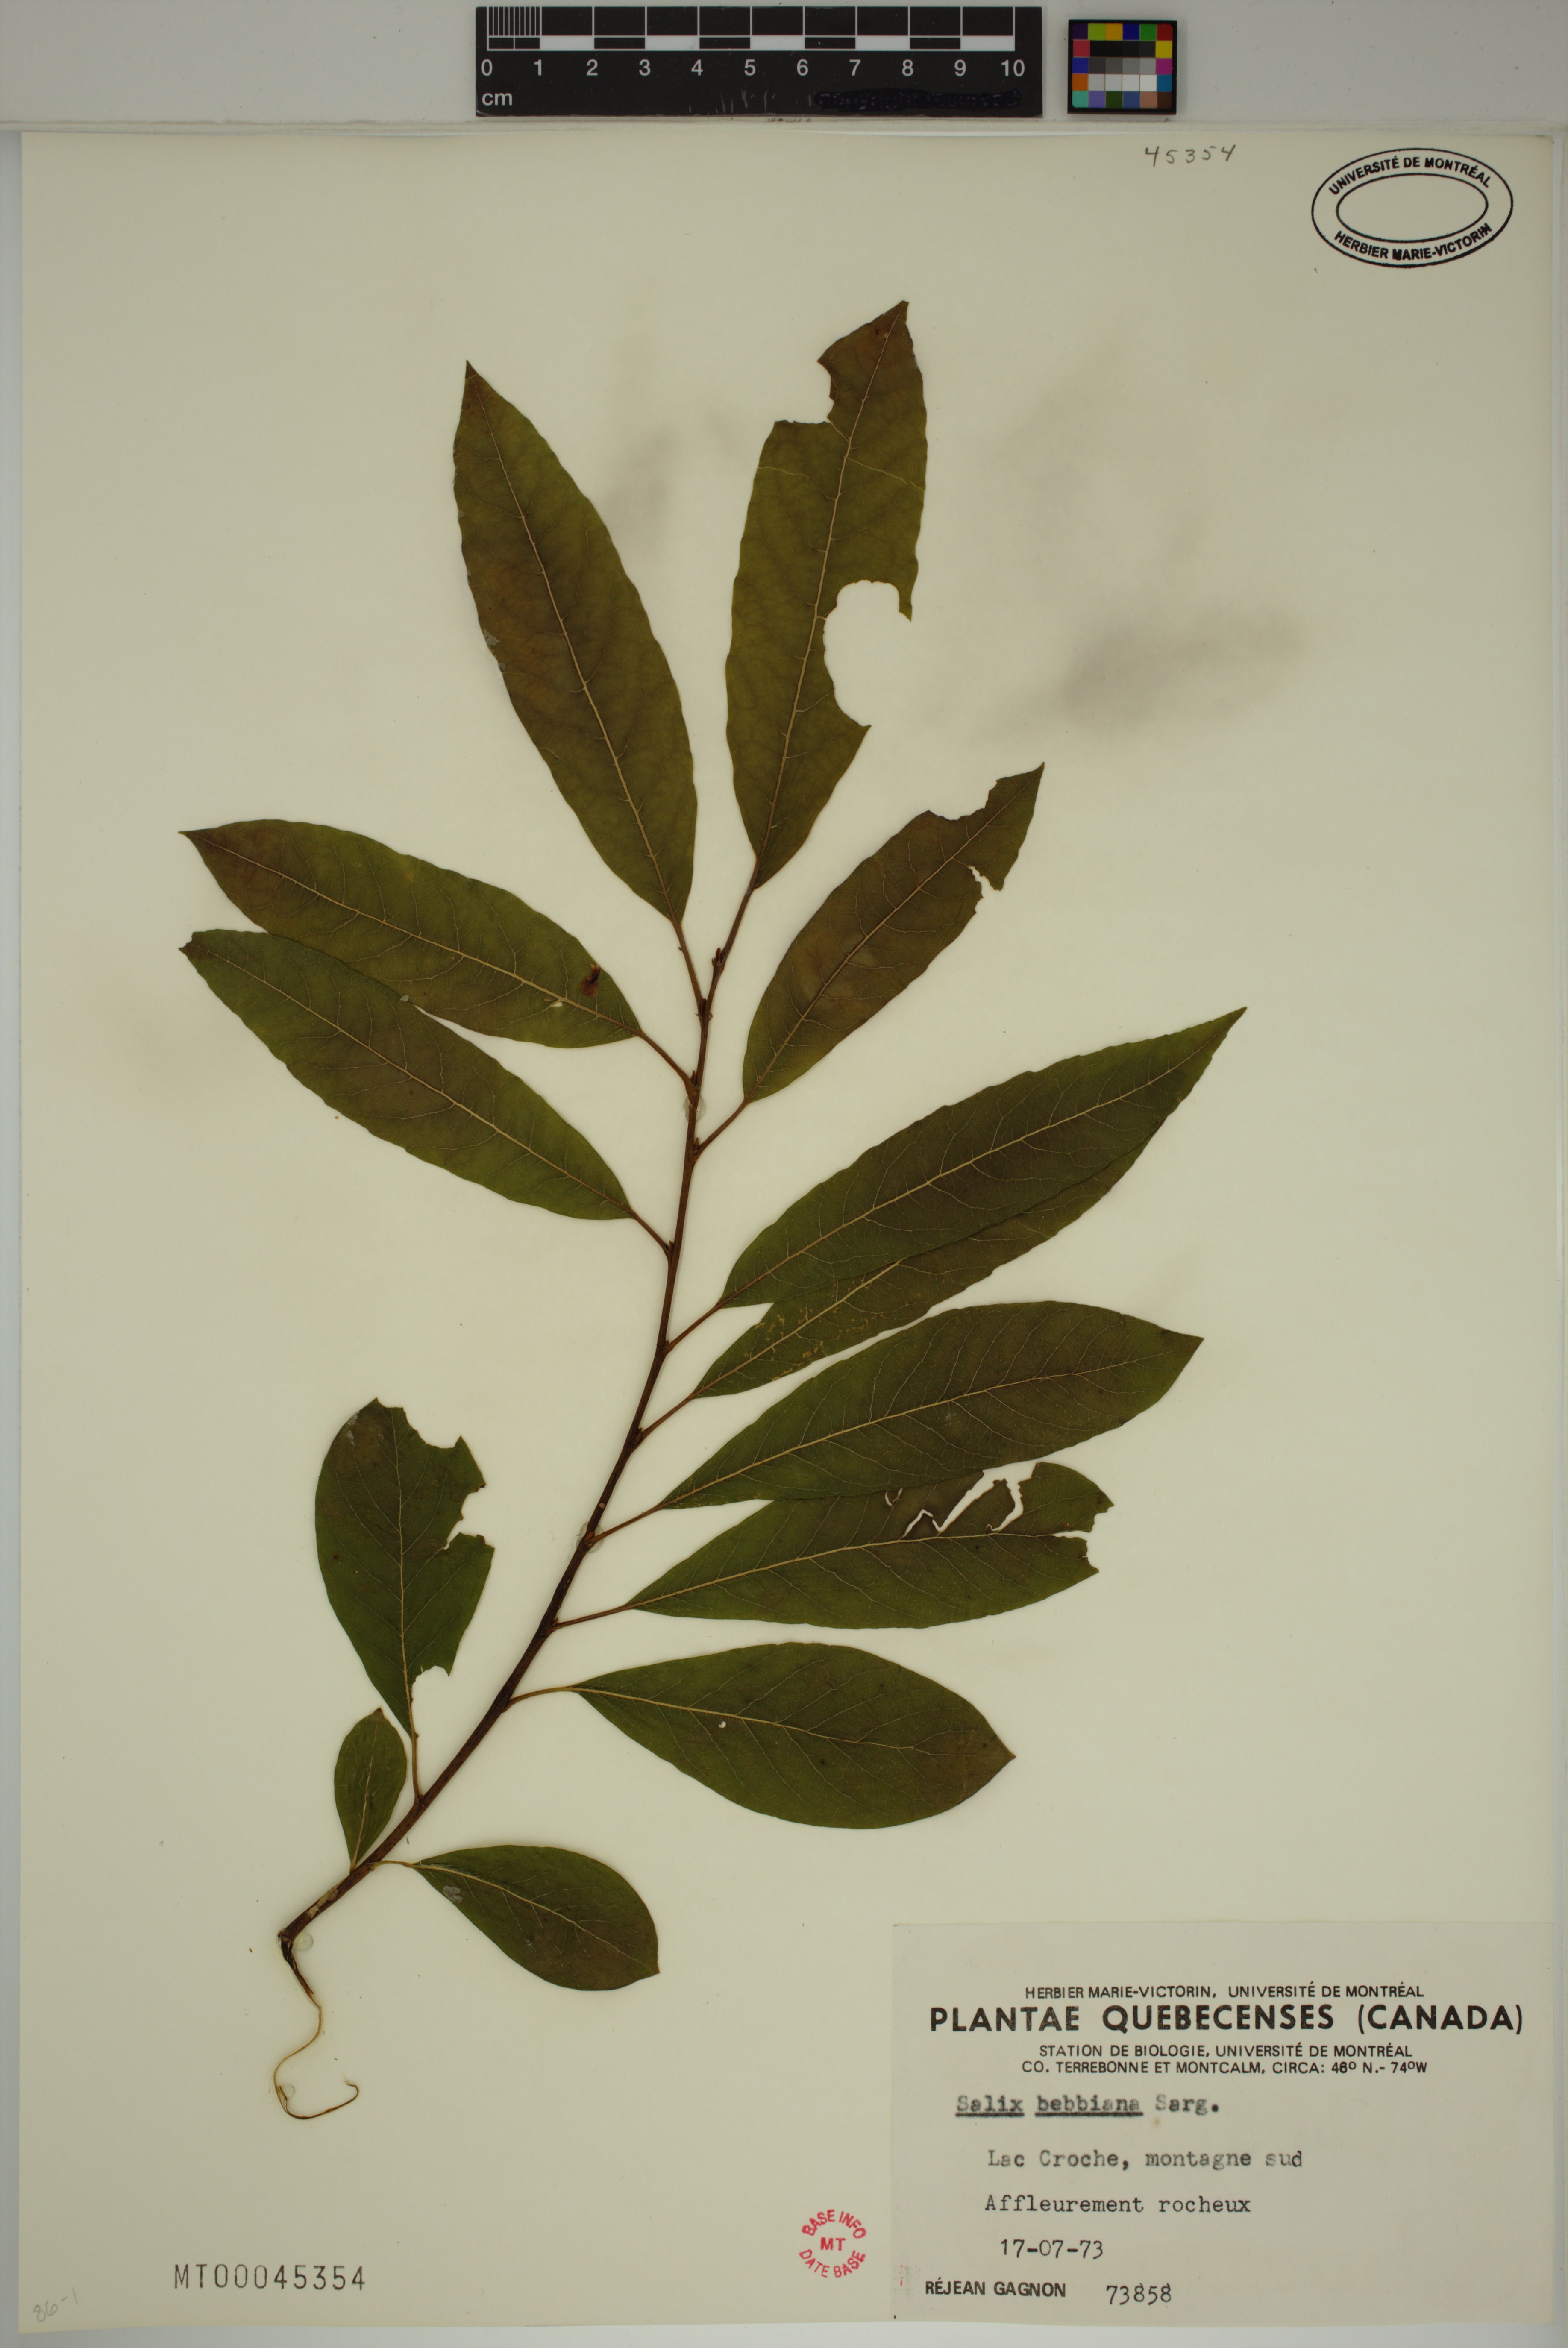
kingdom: Plantae
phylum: Tracheophyta
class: Magnoliopsida
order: Malpighiales
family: Salicaceae
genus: Salix
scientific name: Salix bebbiana
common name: Bebb's willow
